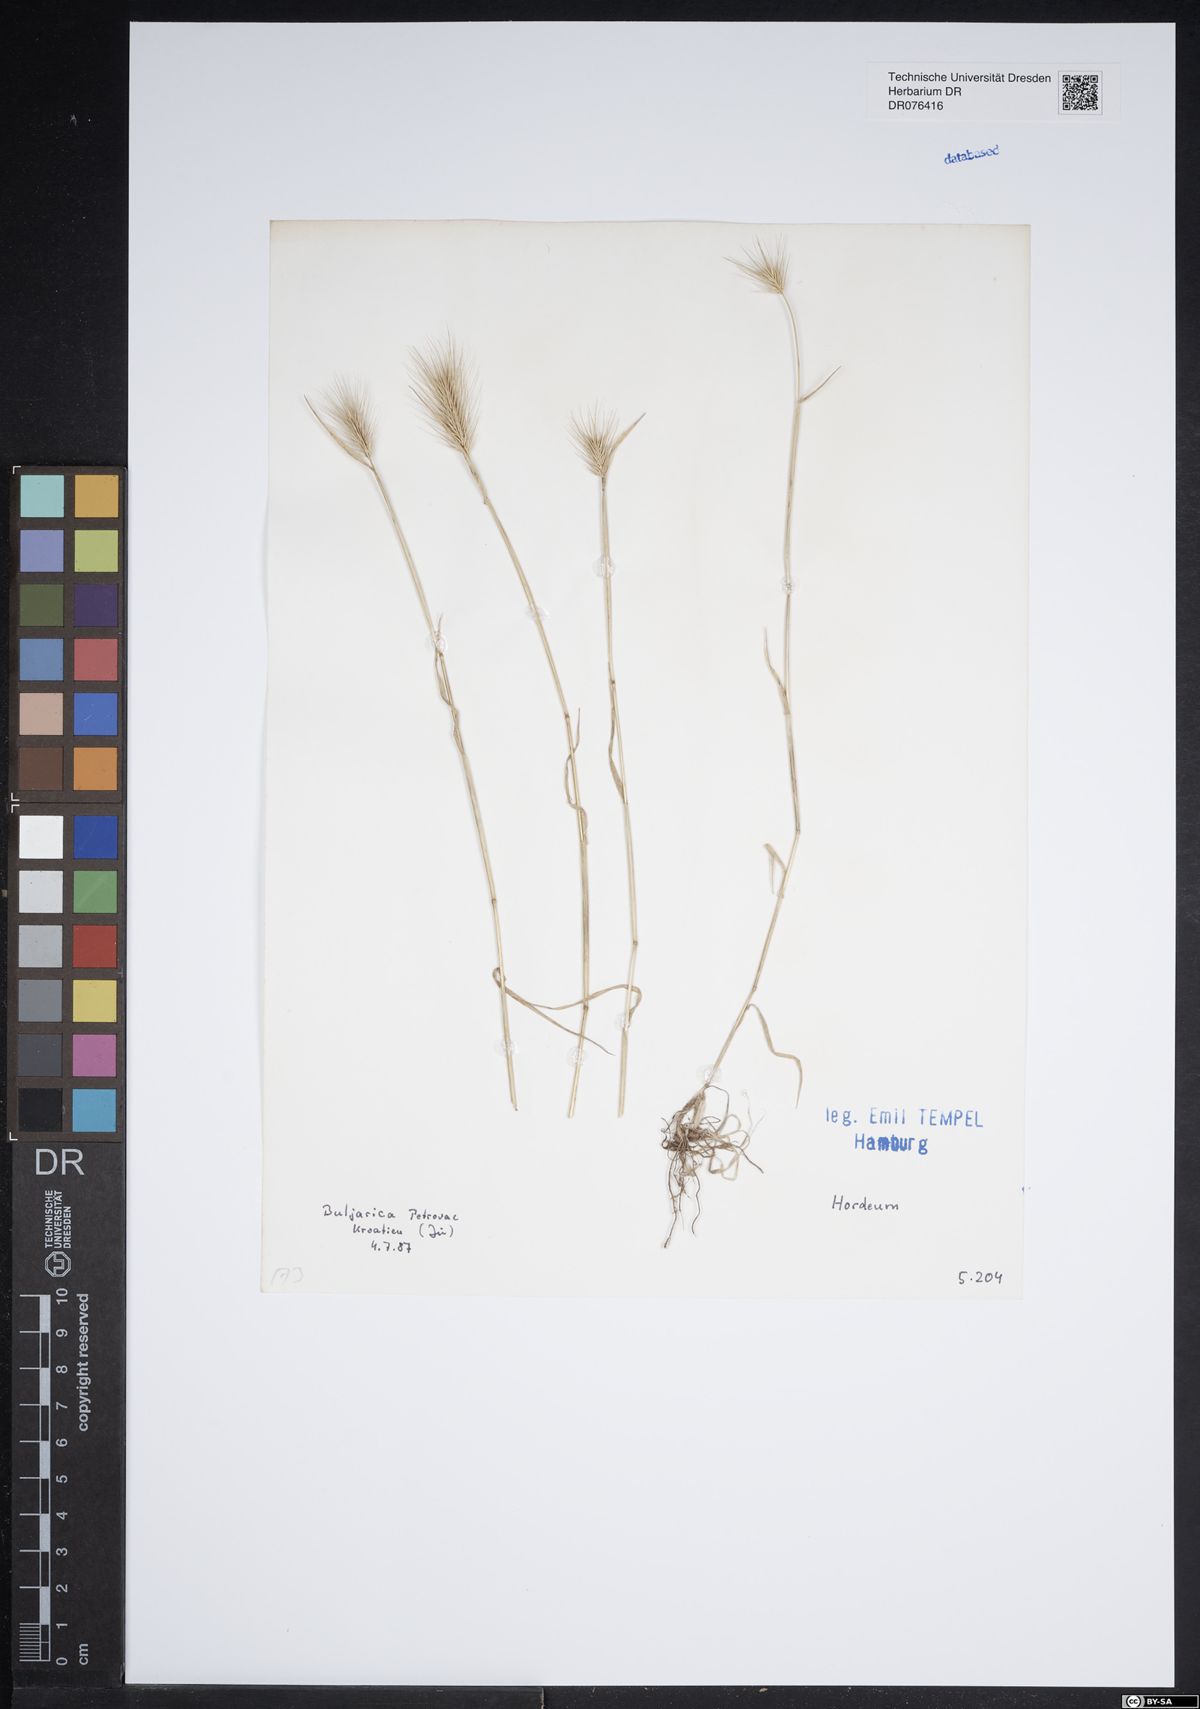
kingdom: Plantae
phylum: Tracheophyta
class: Liliopsida
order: Poales
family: Poaceae
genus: Hordeum
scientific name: Hordeum
